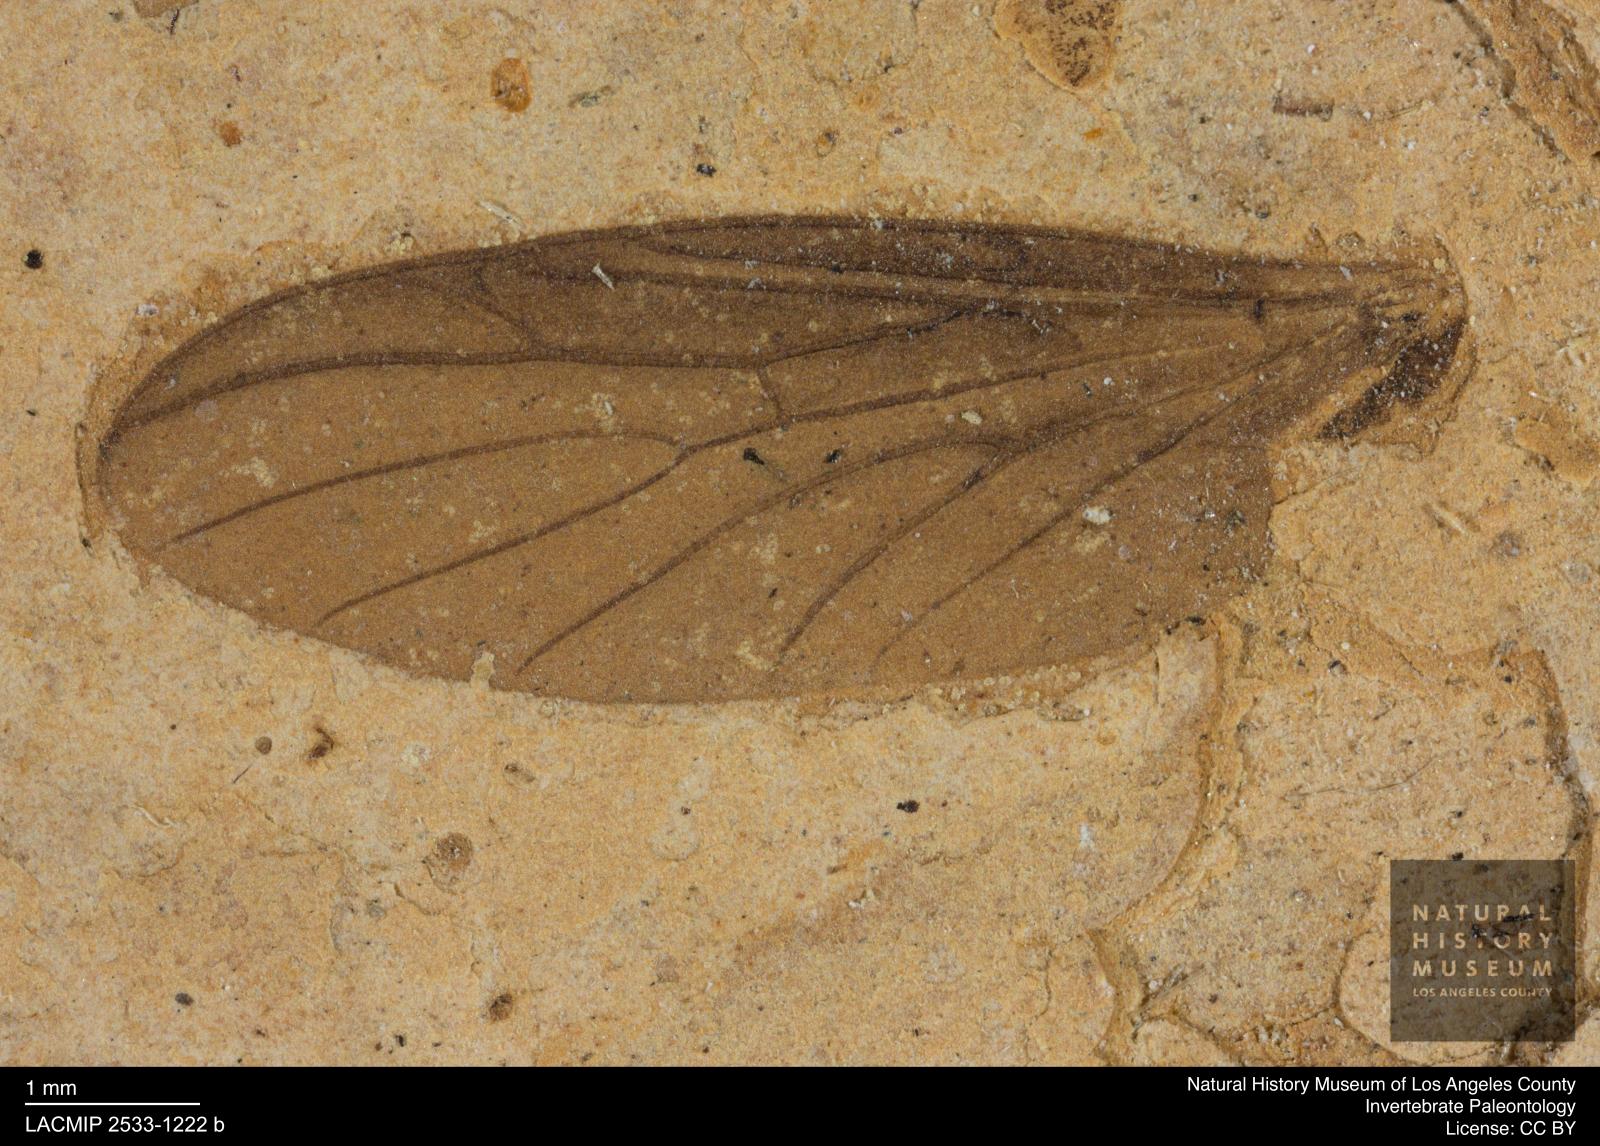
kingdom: Animalia
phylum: Arthropoda
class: Insecta
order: Diptera
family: Bibionidae
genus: Plecia
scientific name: Plecia
